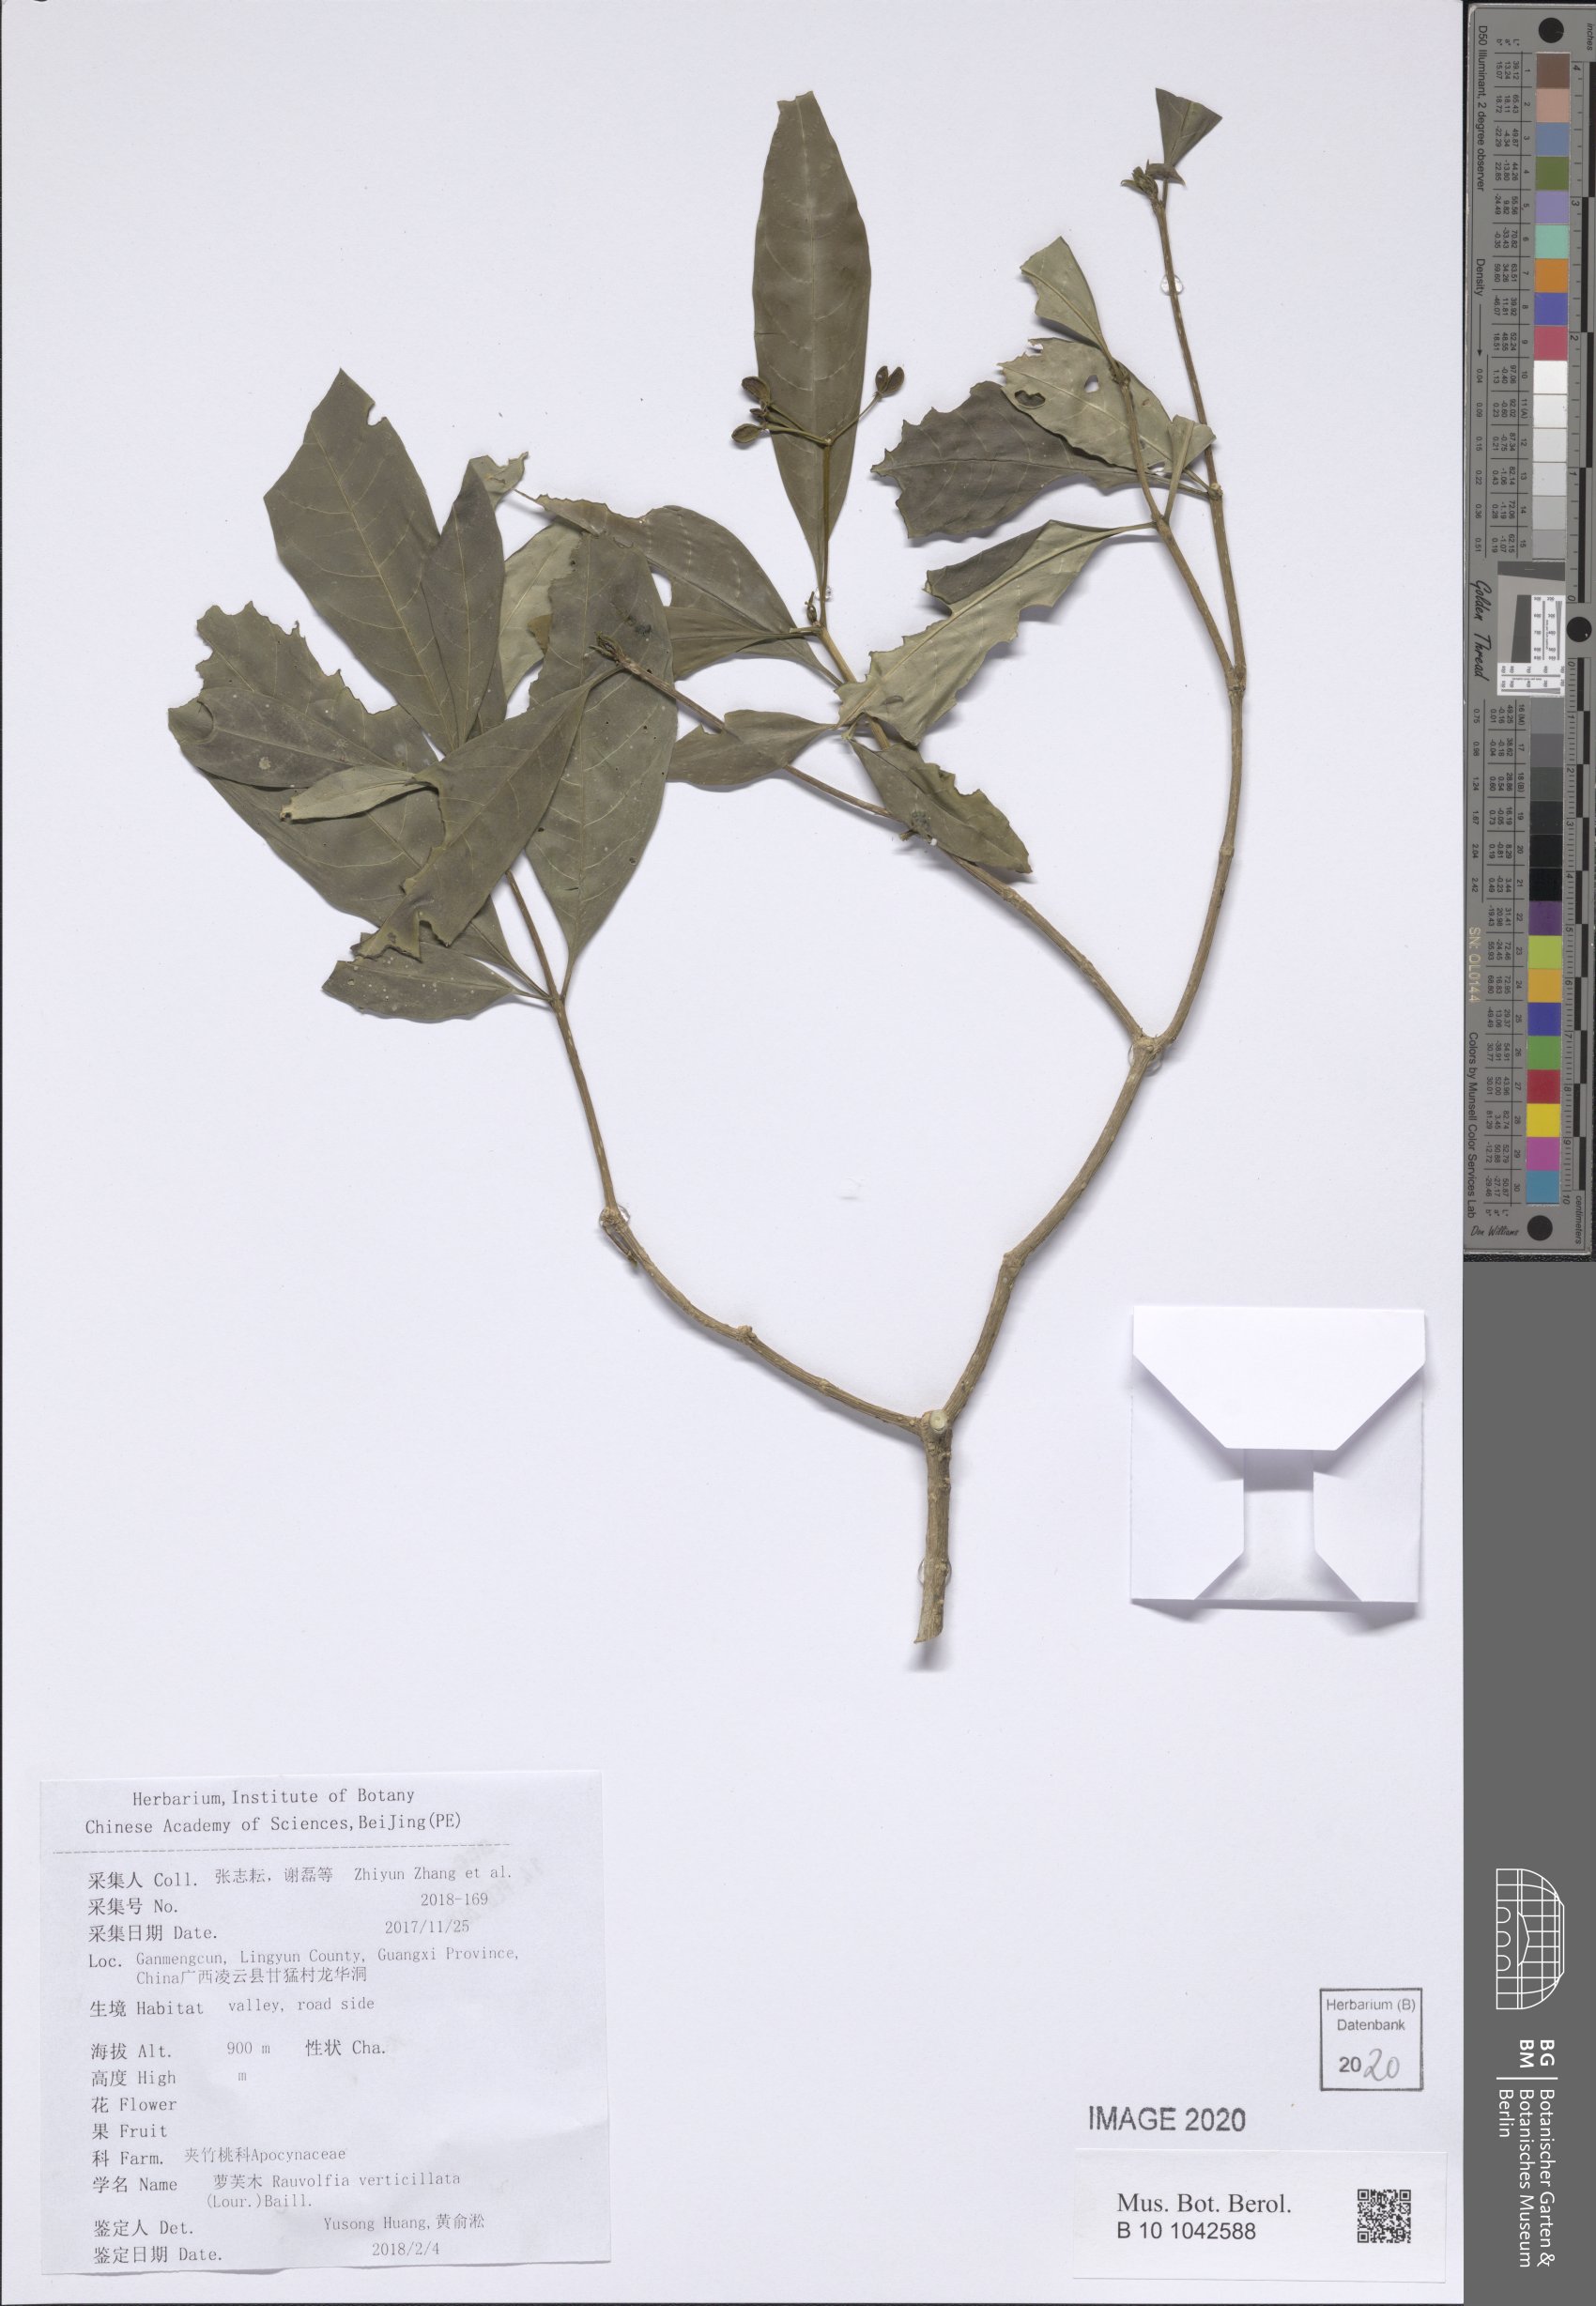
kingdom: Plantae
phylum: Tracheophyta
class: Magnoliopsida
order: Gentianales
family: Apocynaceae
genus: Rauvolfia
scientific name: Rauvolfia verticillata
